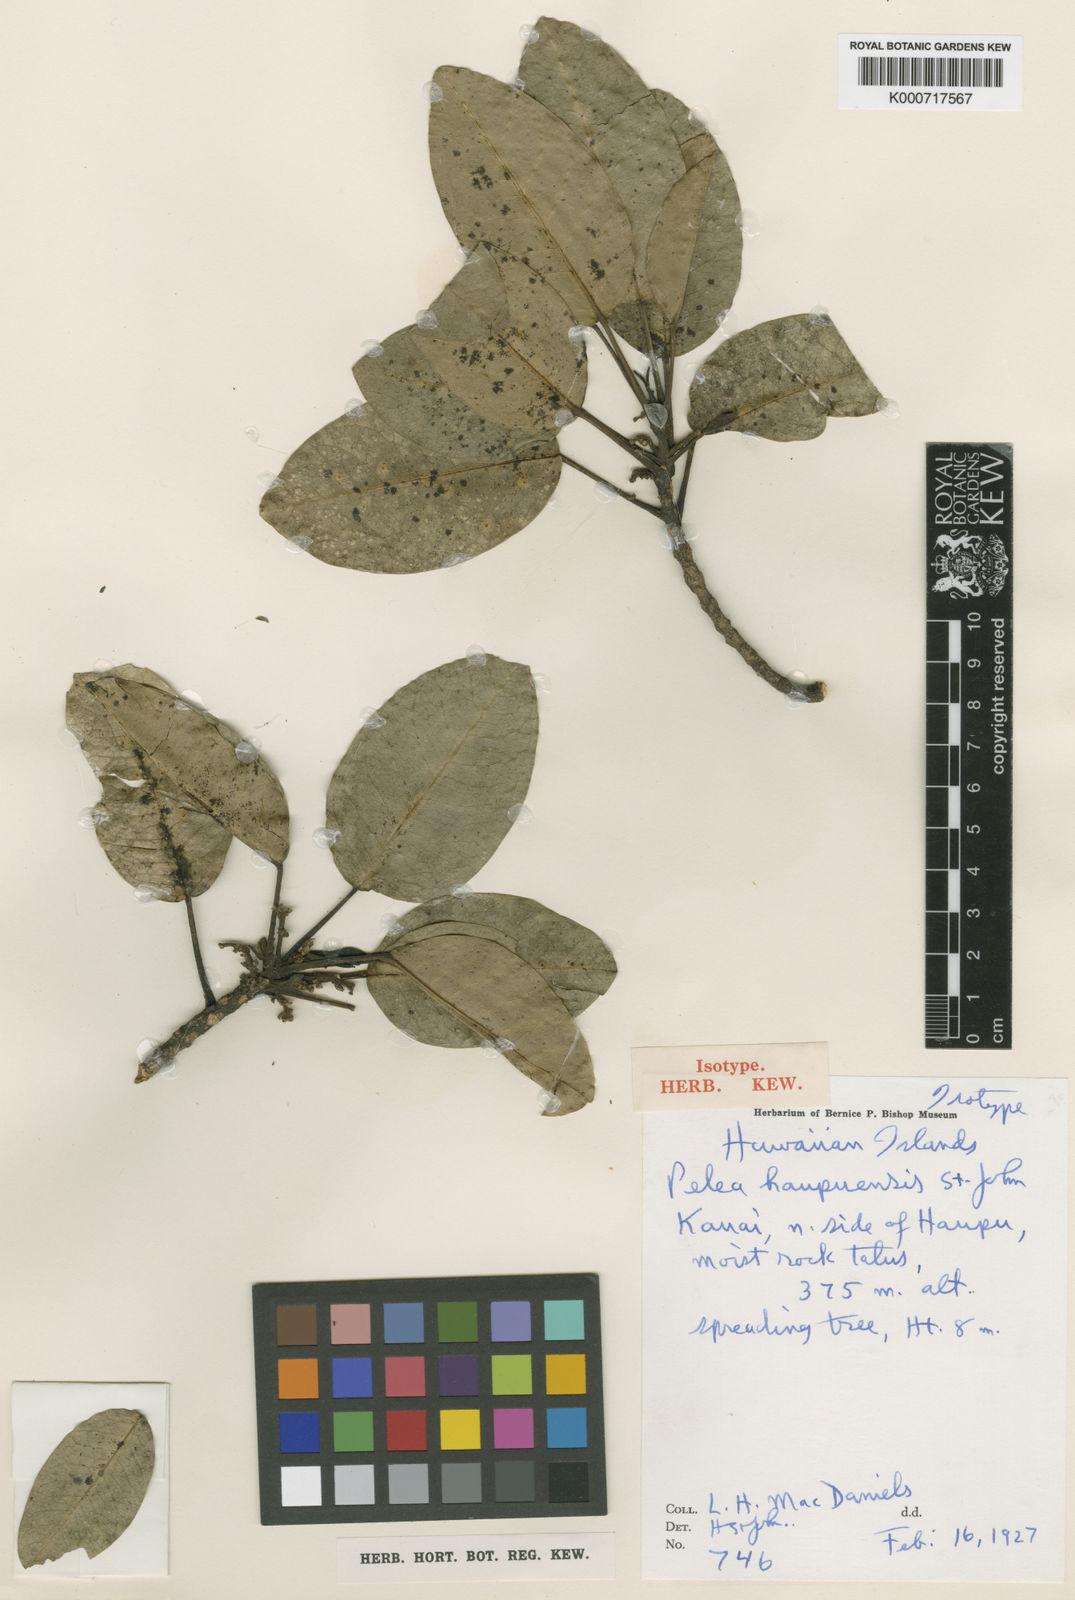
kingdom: Plantae
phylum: Tracheophyta
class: Magnoliopsida
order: Sapindales
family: Rutaceae
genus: Melicope
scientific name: Melicope haupuensis
